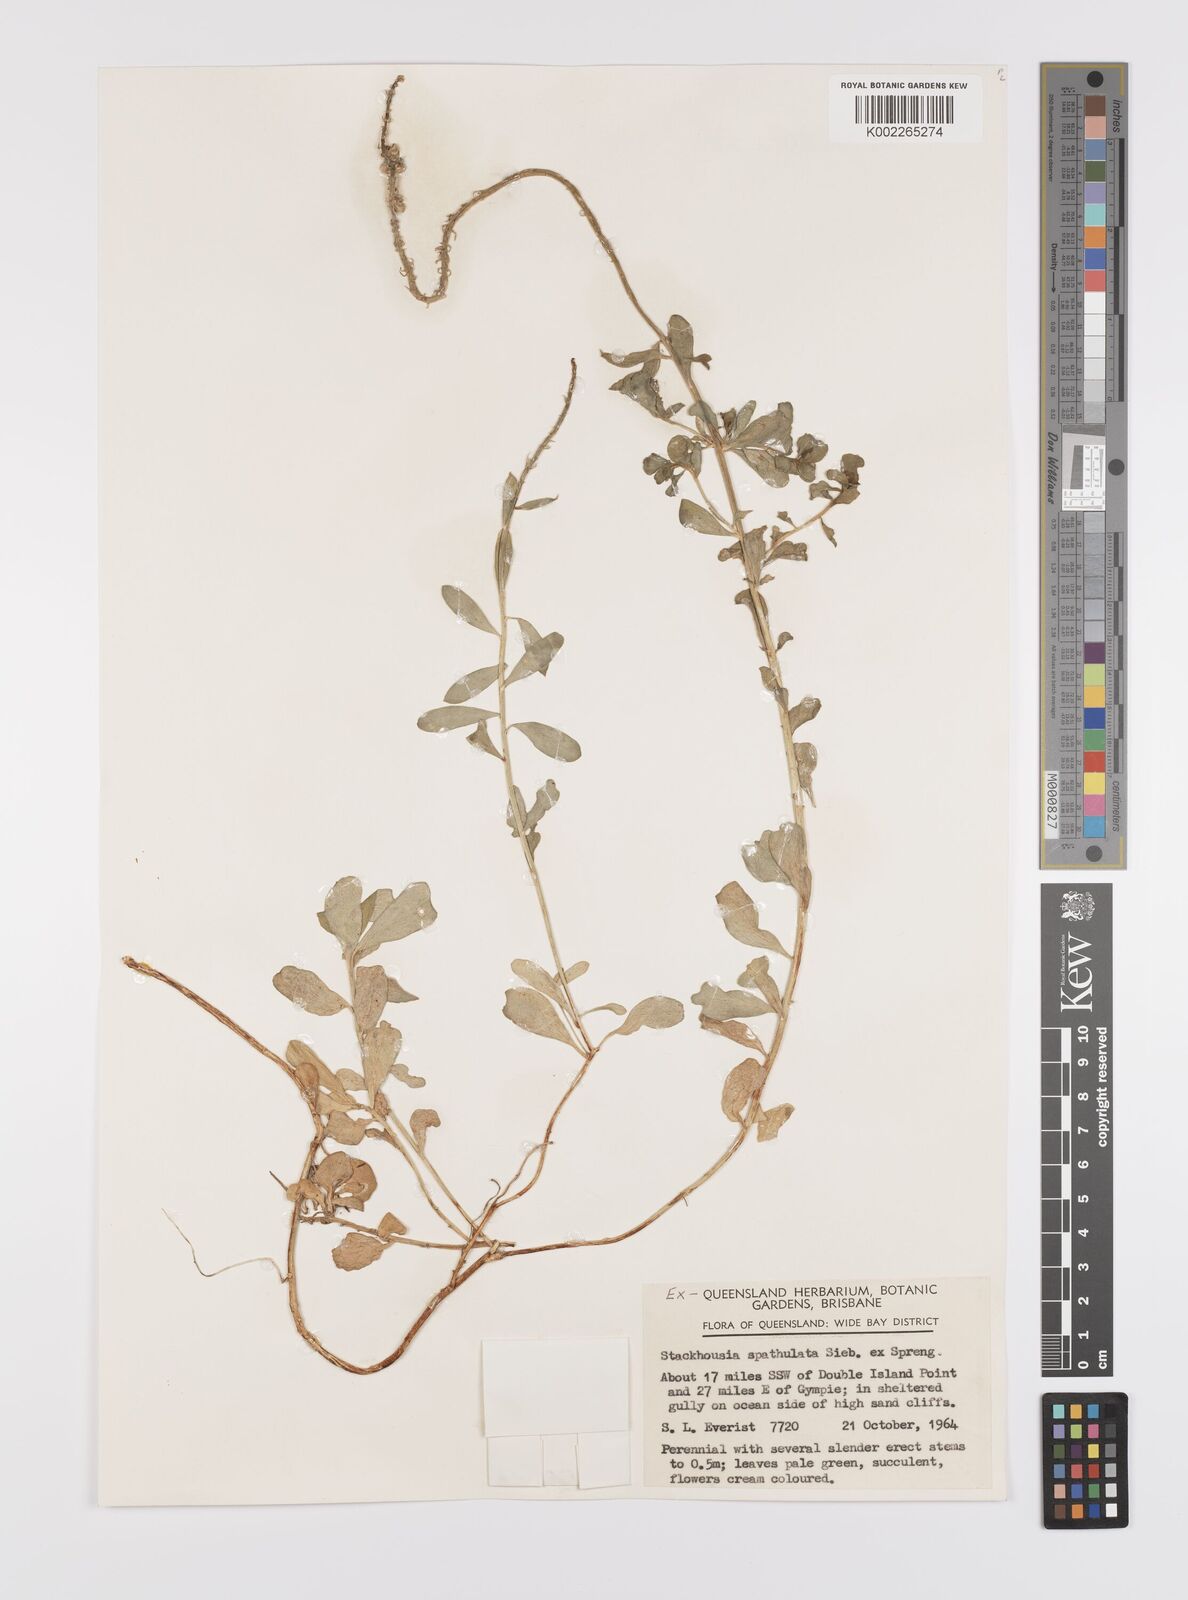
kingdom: Plantae
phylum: Tracheophyta
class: Magnoliopsida
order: Celastrales
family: Celastraceae
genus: Stackhousia
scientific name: Stackhousia spathulata
